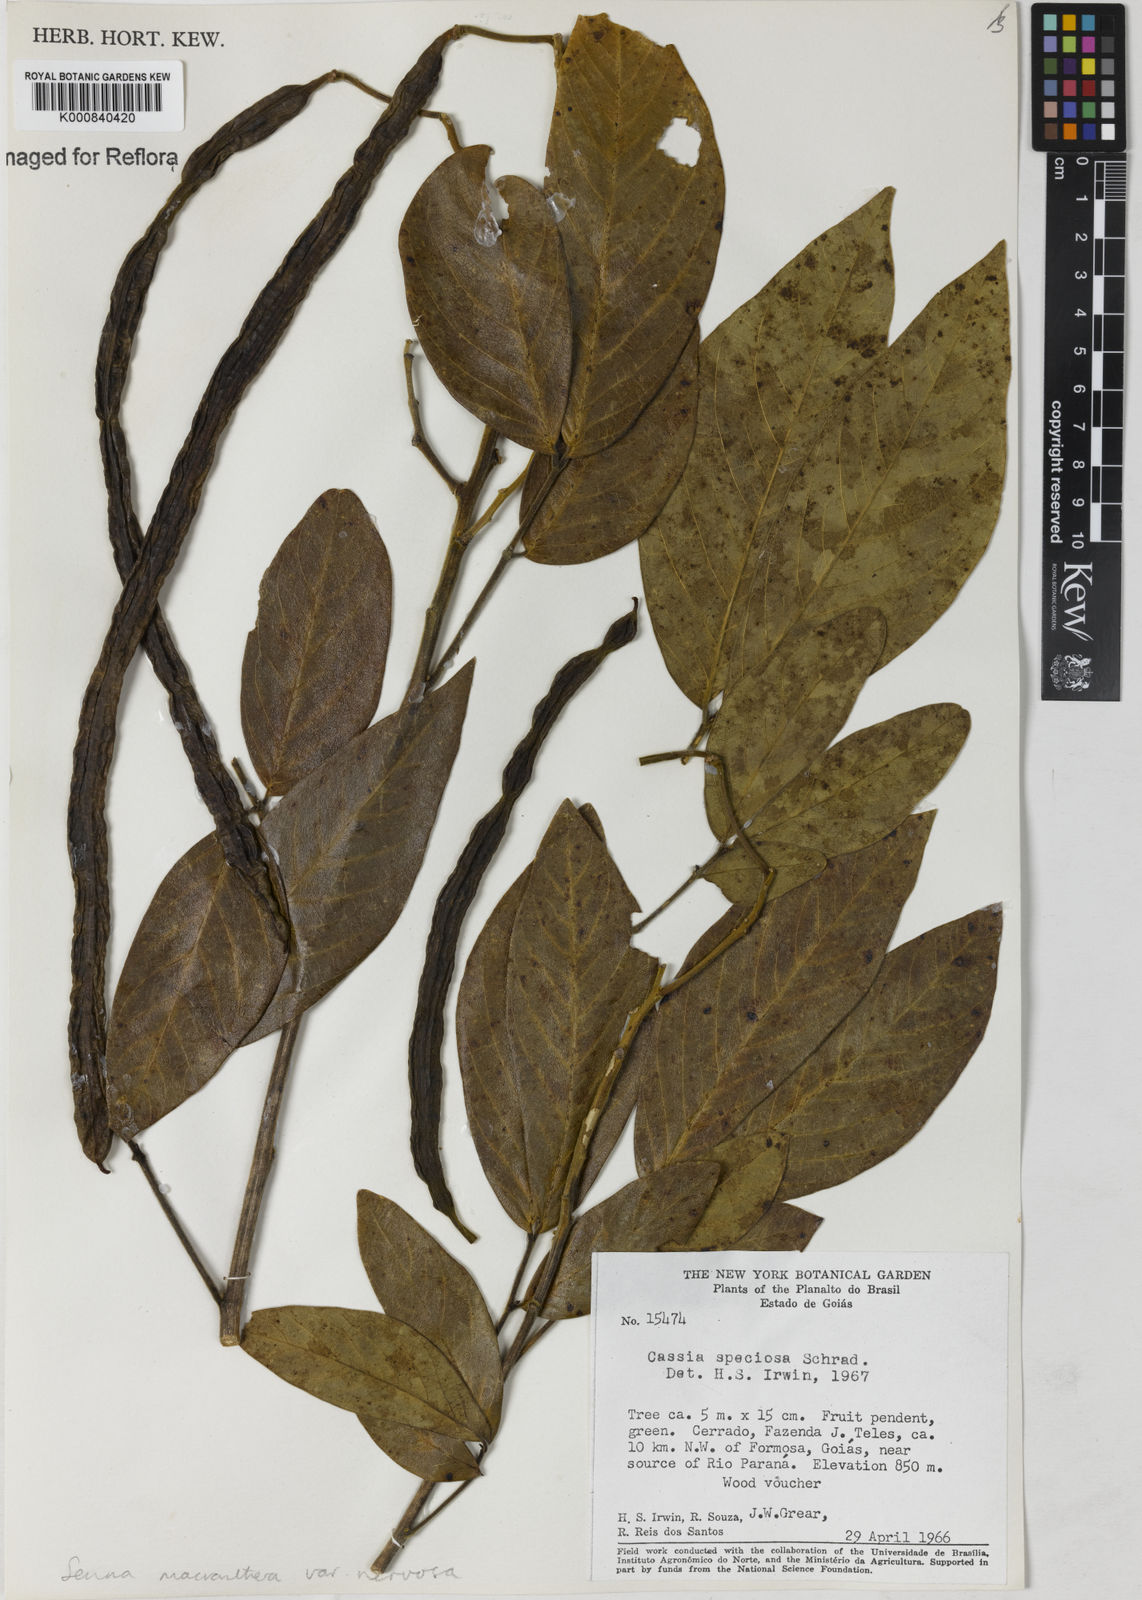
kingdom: Plantae
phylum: Tracheophyta
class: Magnoliopsida
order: Fabales
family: Fabaceae
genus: Senna
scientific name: Senna macranthera
